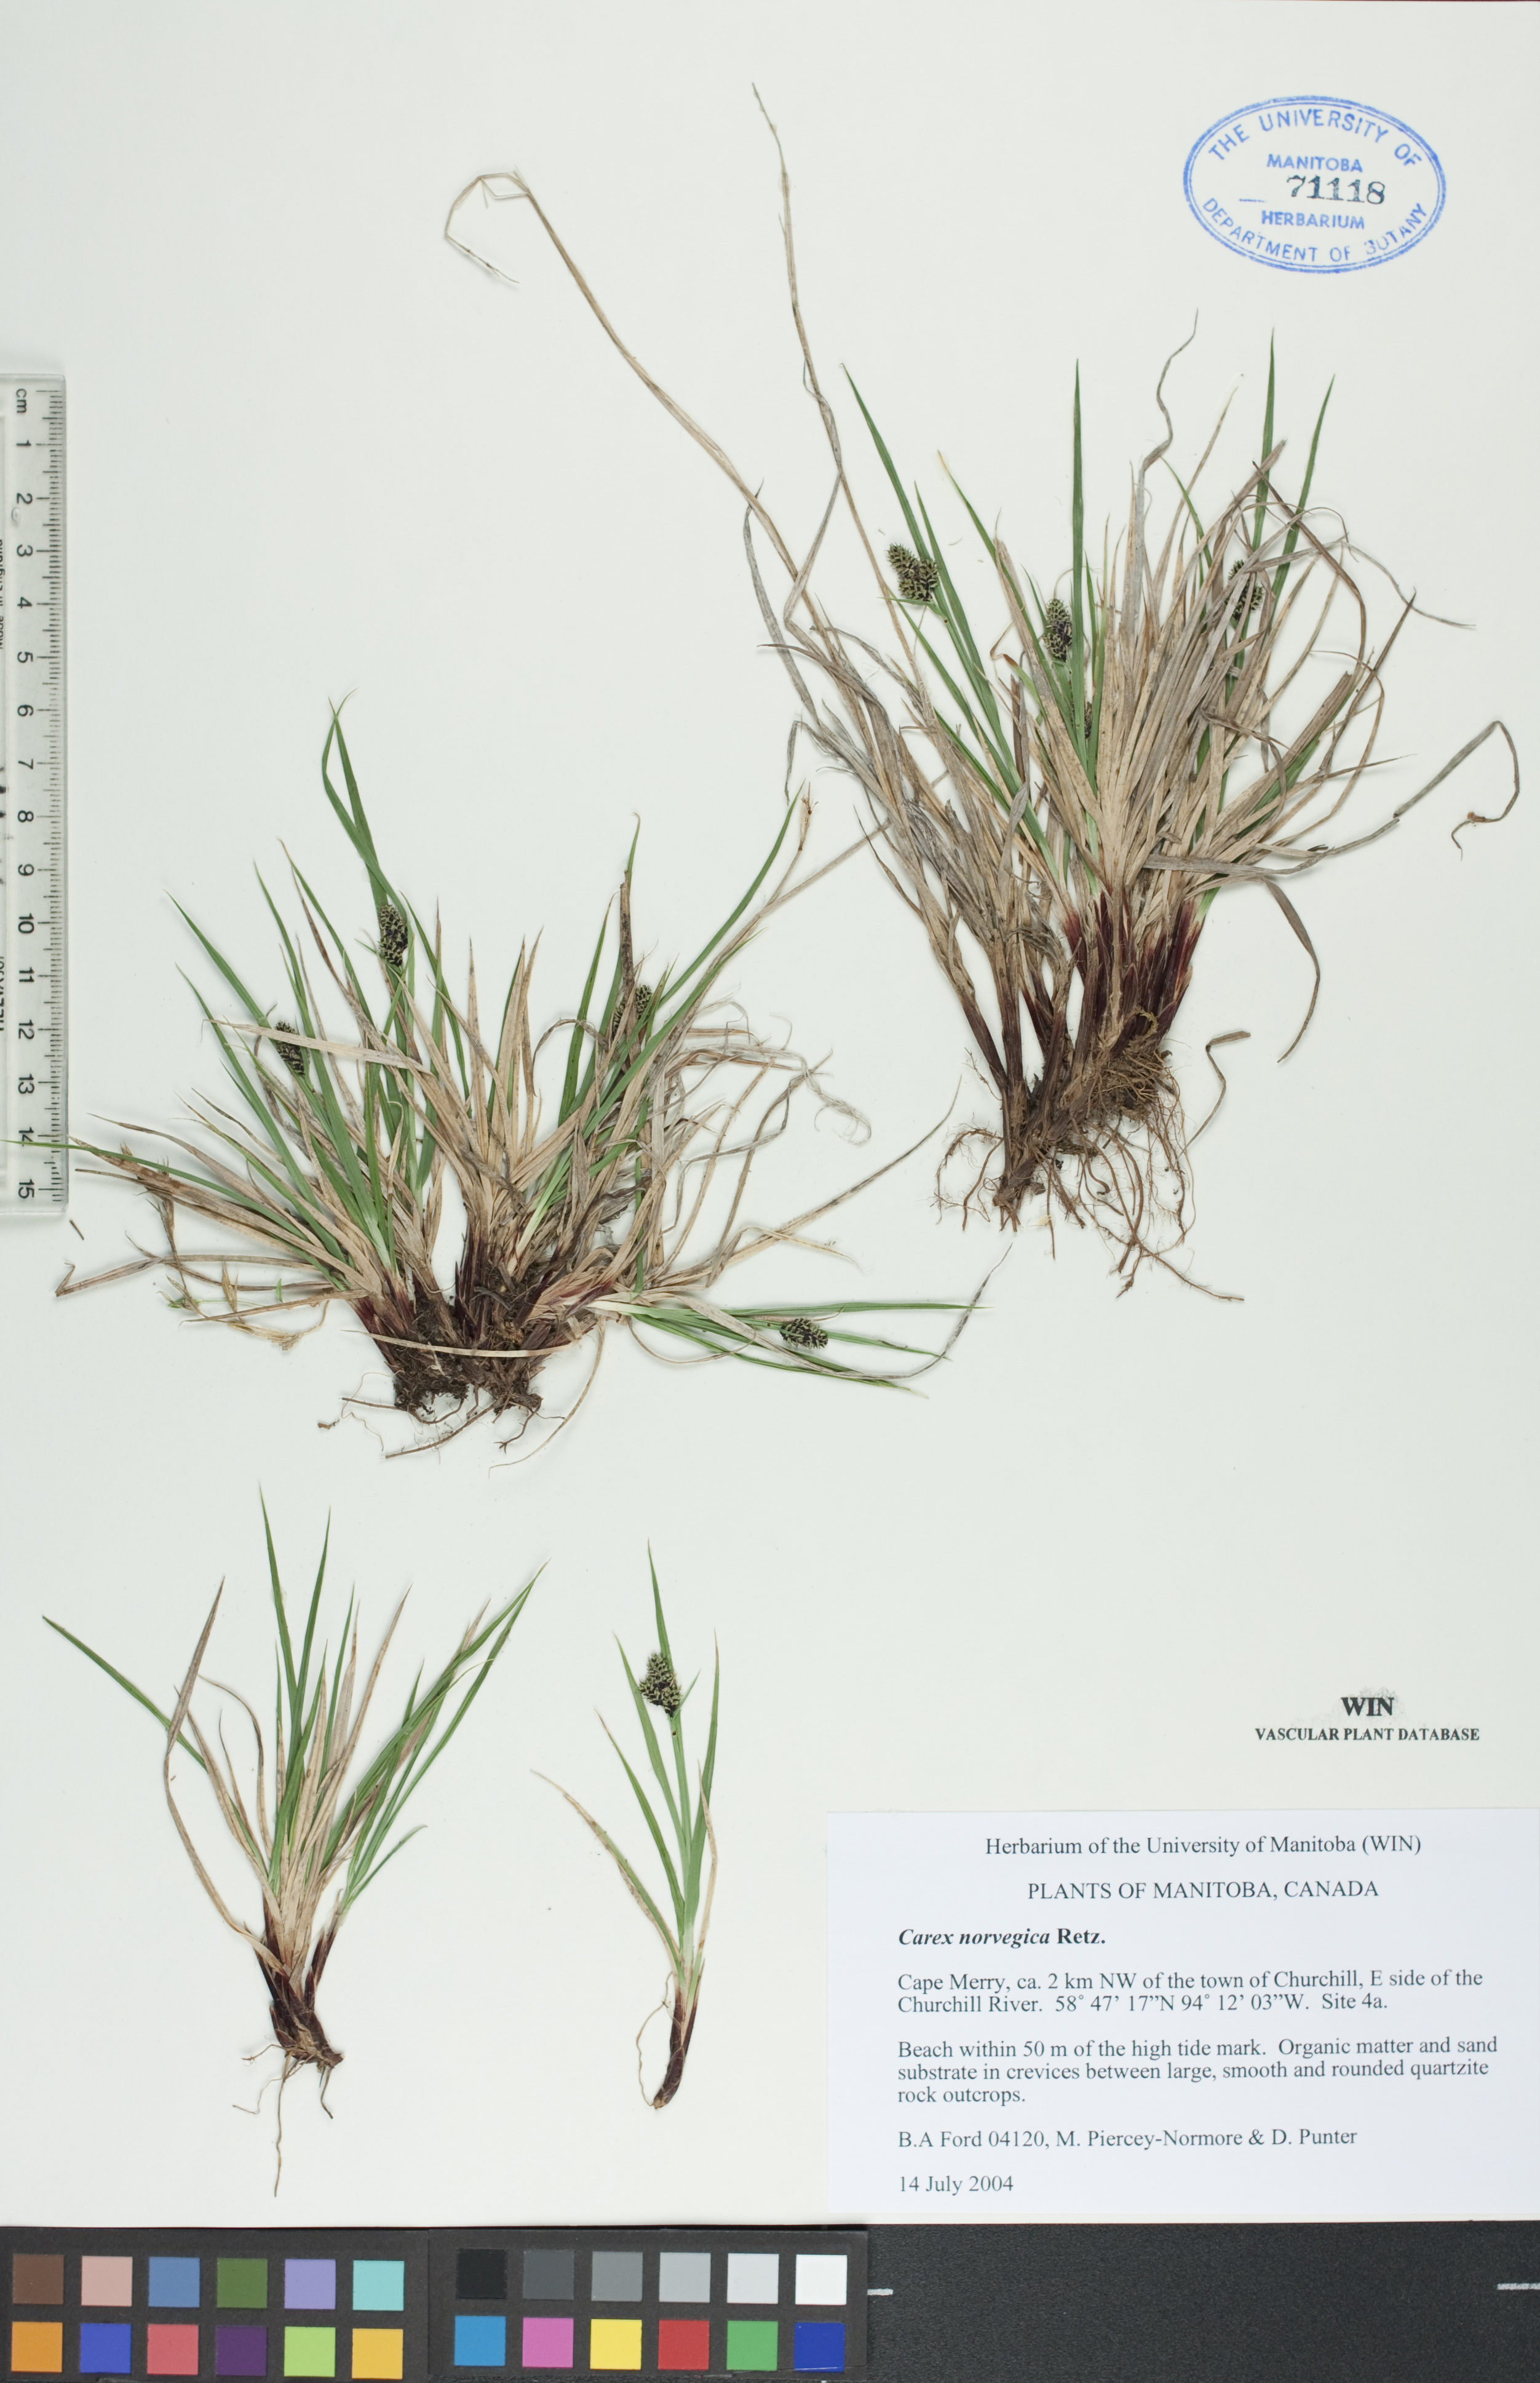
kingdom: Plantae
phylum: Tracheophyta
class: Liliopsida
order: Poales
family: Cyperaceae
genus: Carex
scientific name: Carex norvegica
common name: Close-headed alpine-sedge
